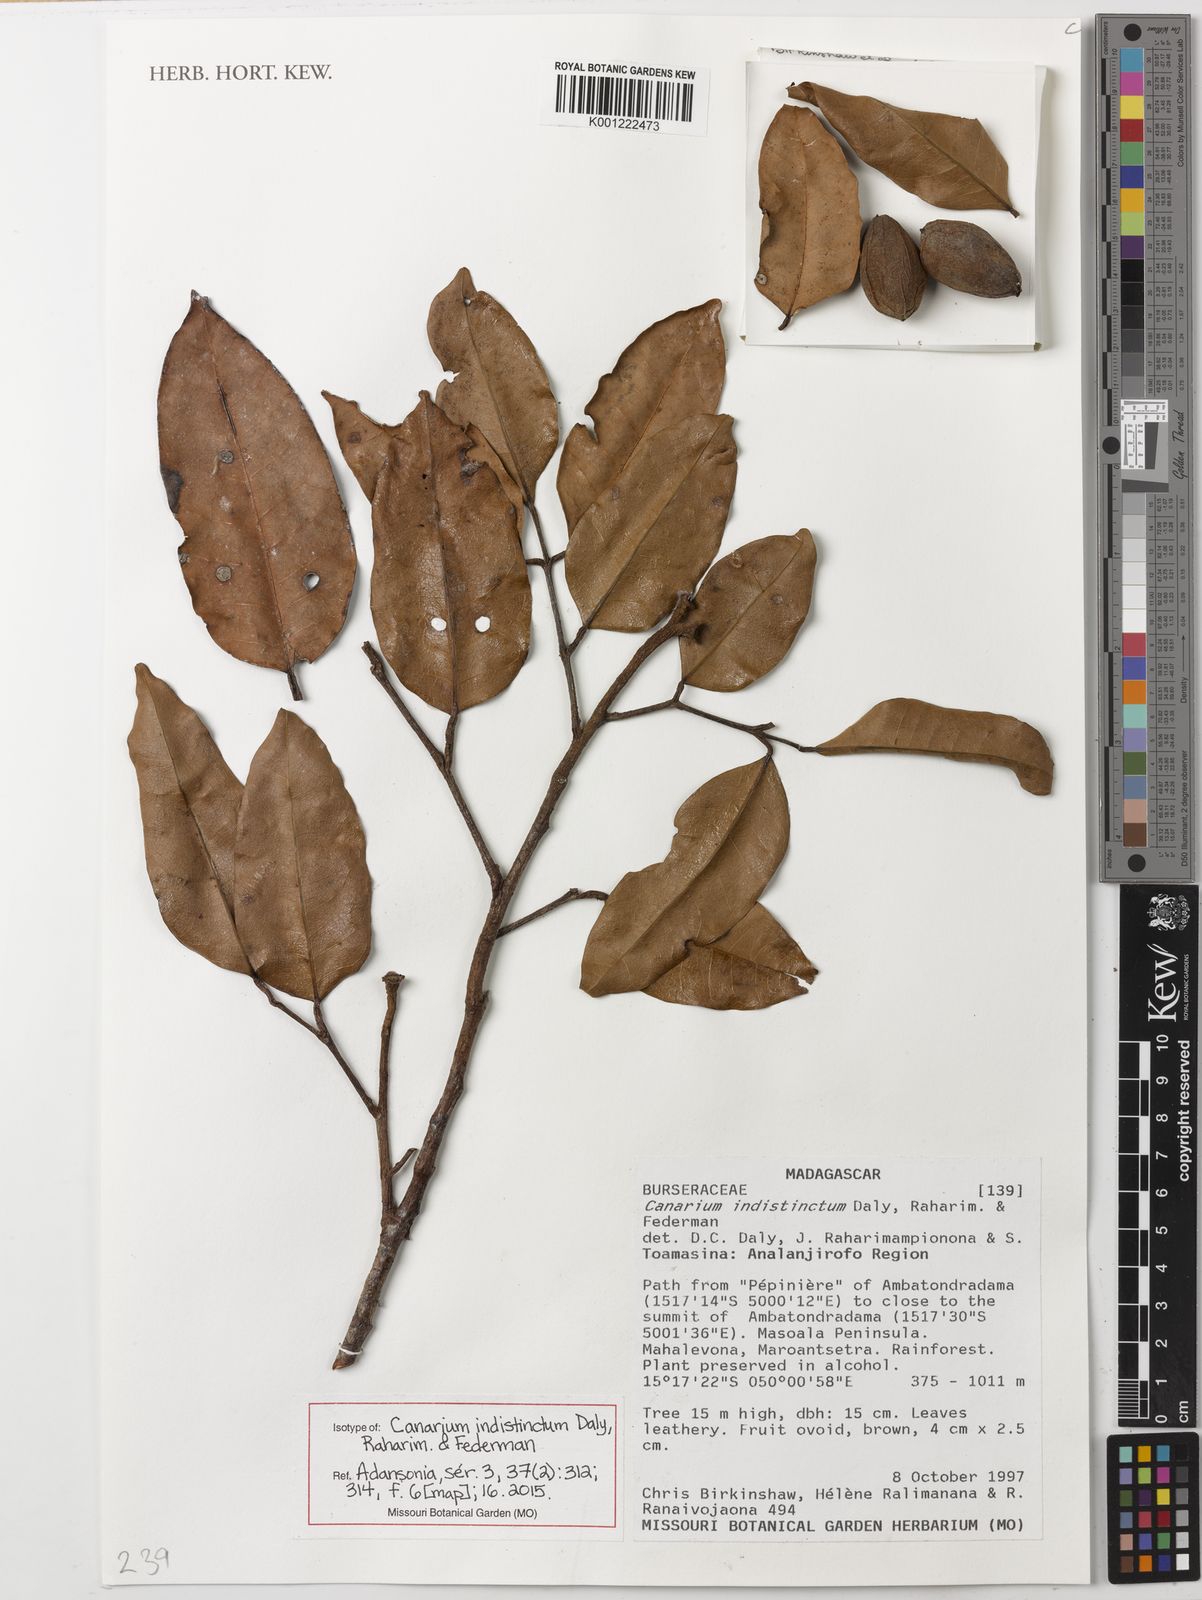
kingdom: Plantae
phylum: Tracheophyta
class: Magnoliopsida
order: Sapindales
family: Burseraceae
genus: Canarium
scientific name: Canarium indistinctum
